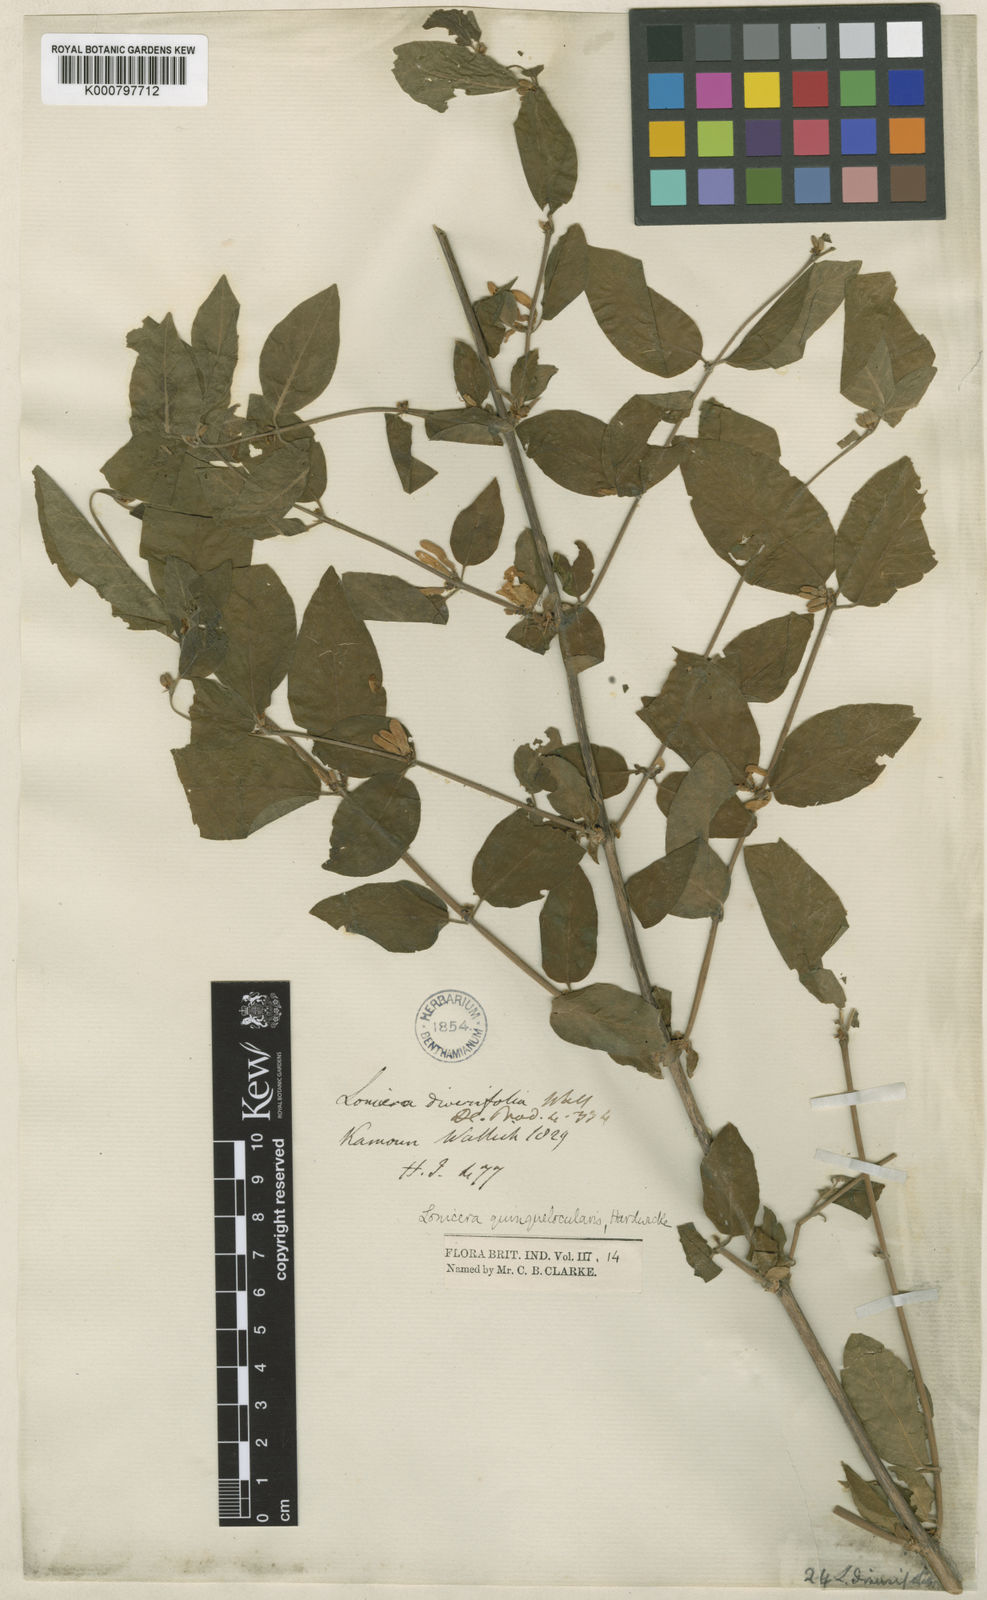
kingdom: Plantae
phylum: Tracheophyta
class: Magnoliopsida
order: Dipsacales
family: Caprifoliaceae
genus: Lonicera
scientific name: Lonicera quinquelocularis
